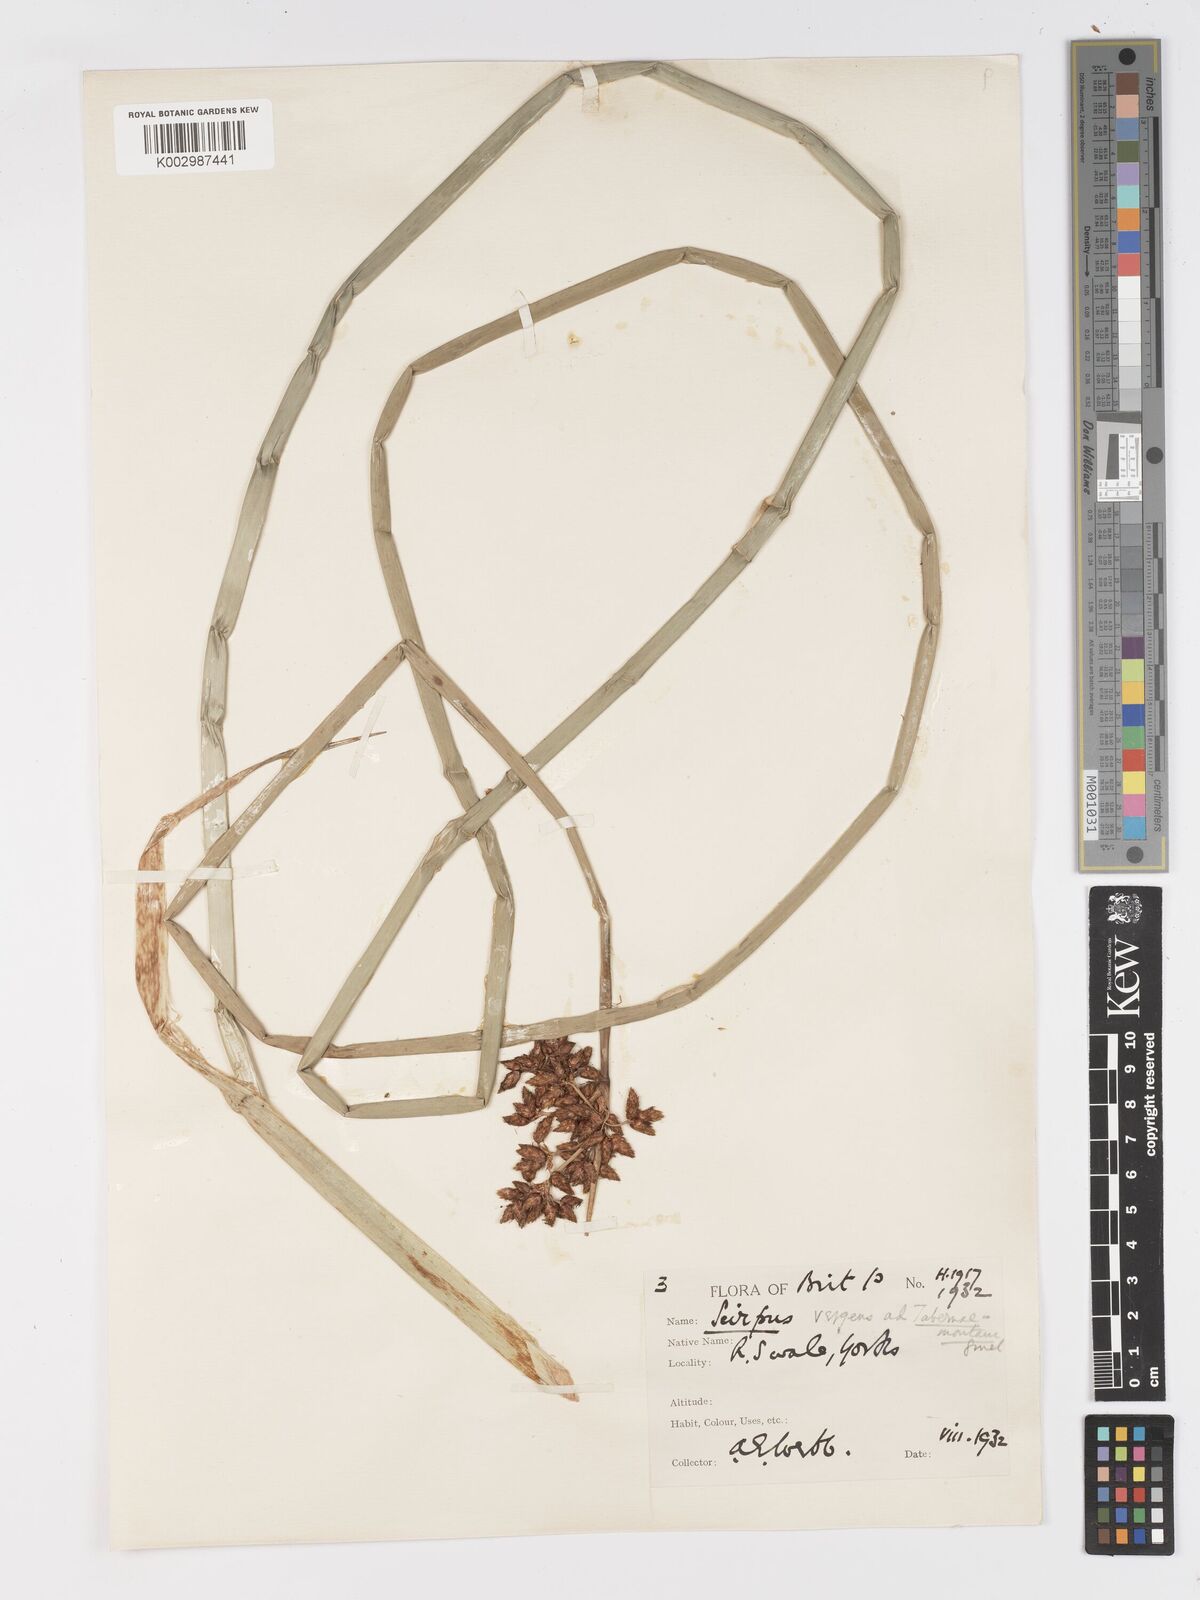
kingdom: Plantae
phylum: Tracheophyta
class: Liliopsida
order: Poales
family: Cyperaceae
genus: Schoenoplectus
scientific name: Schoenoplectus lacustris
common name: Common club-rush
